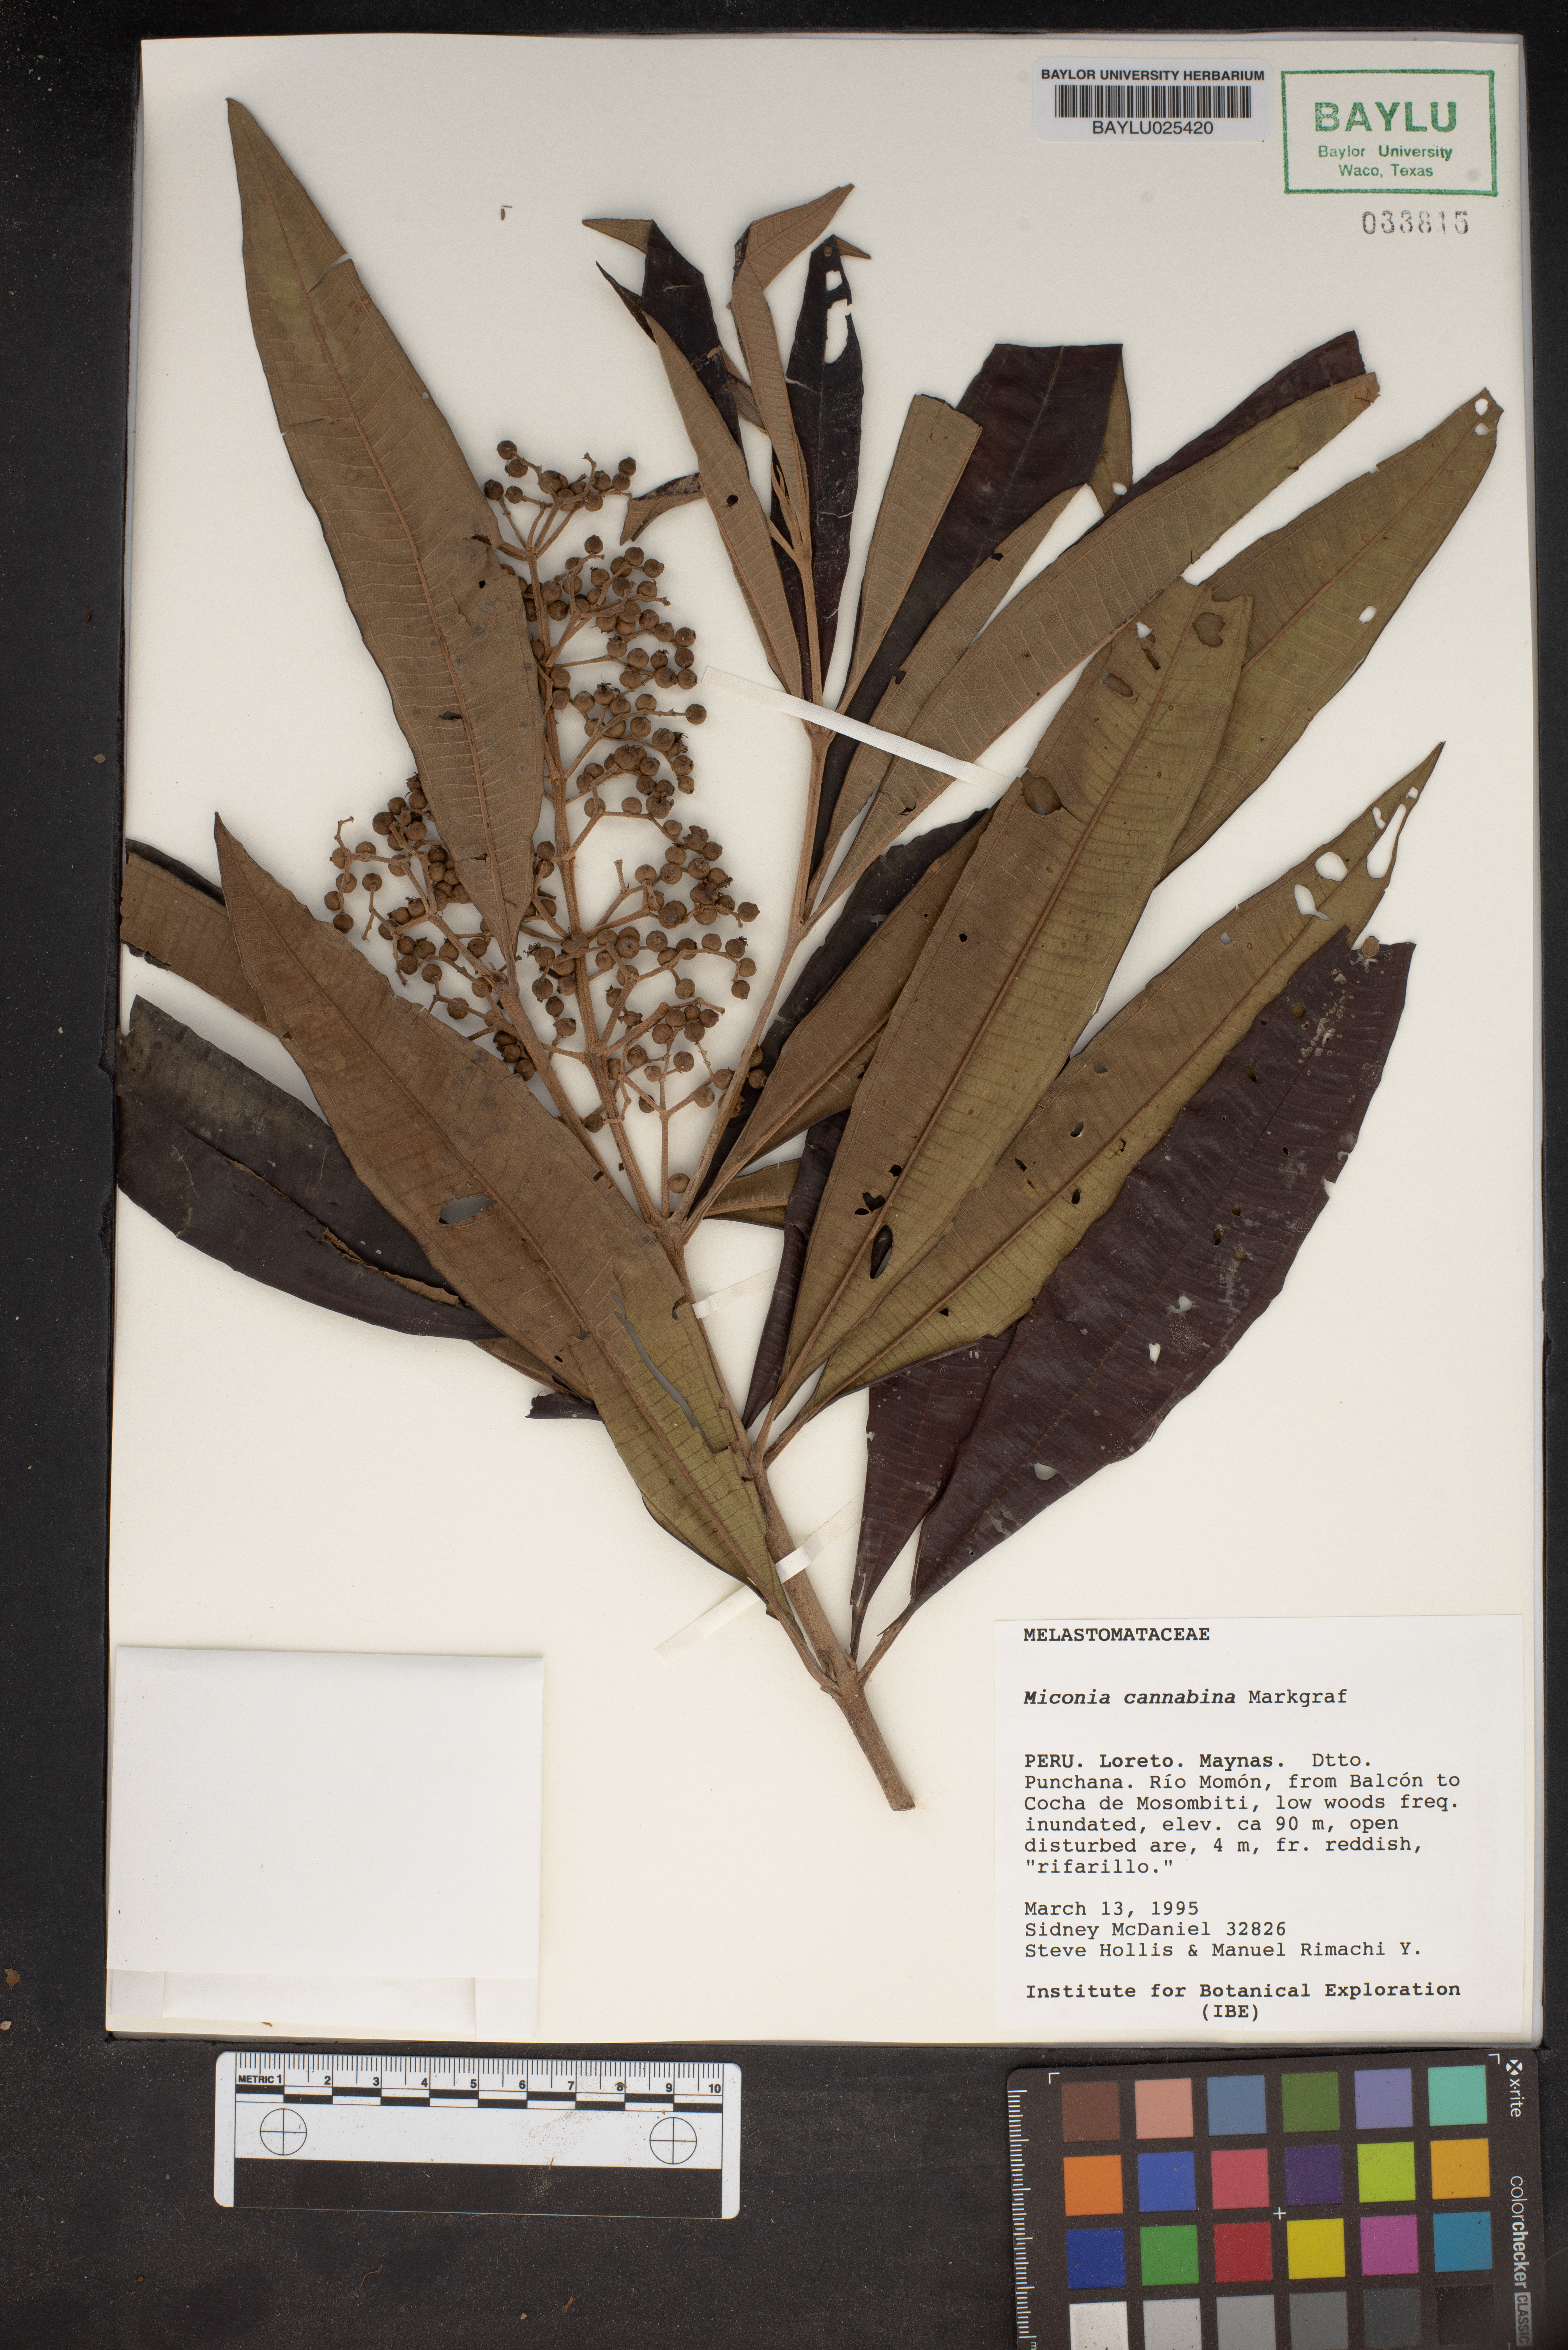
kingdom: Plantae
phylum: Tracheophyta
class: Magnoliopsida
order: Myrtales
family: Melastomataceae
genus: Miconia
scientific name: Miconia cannabina
